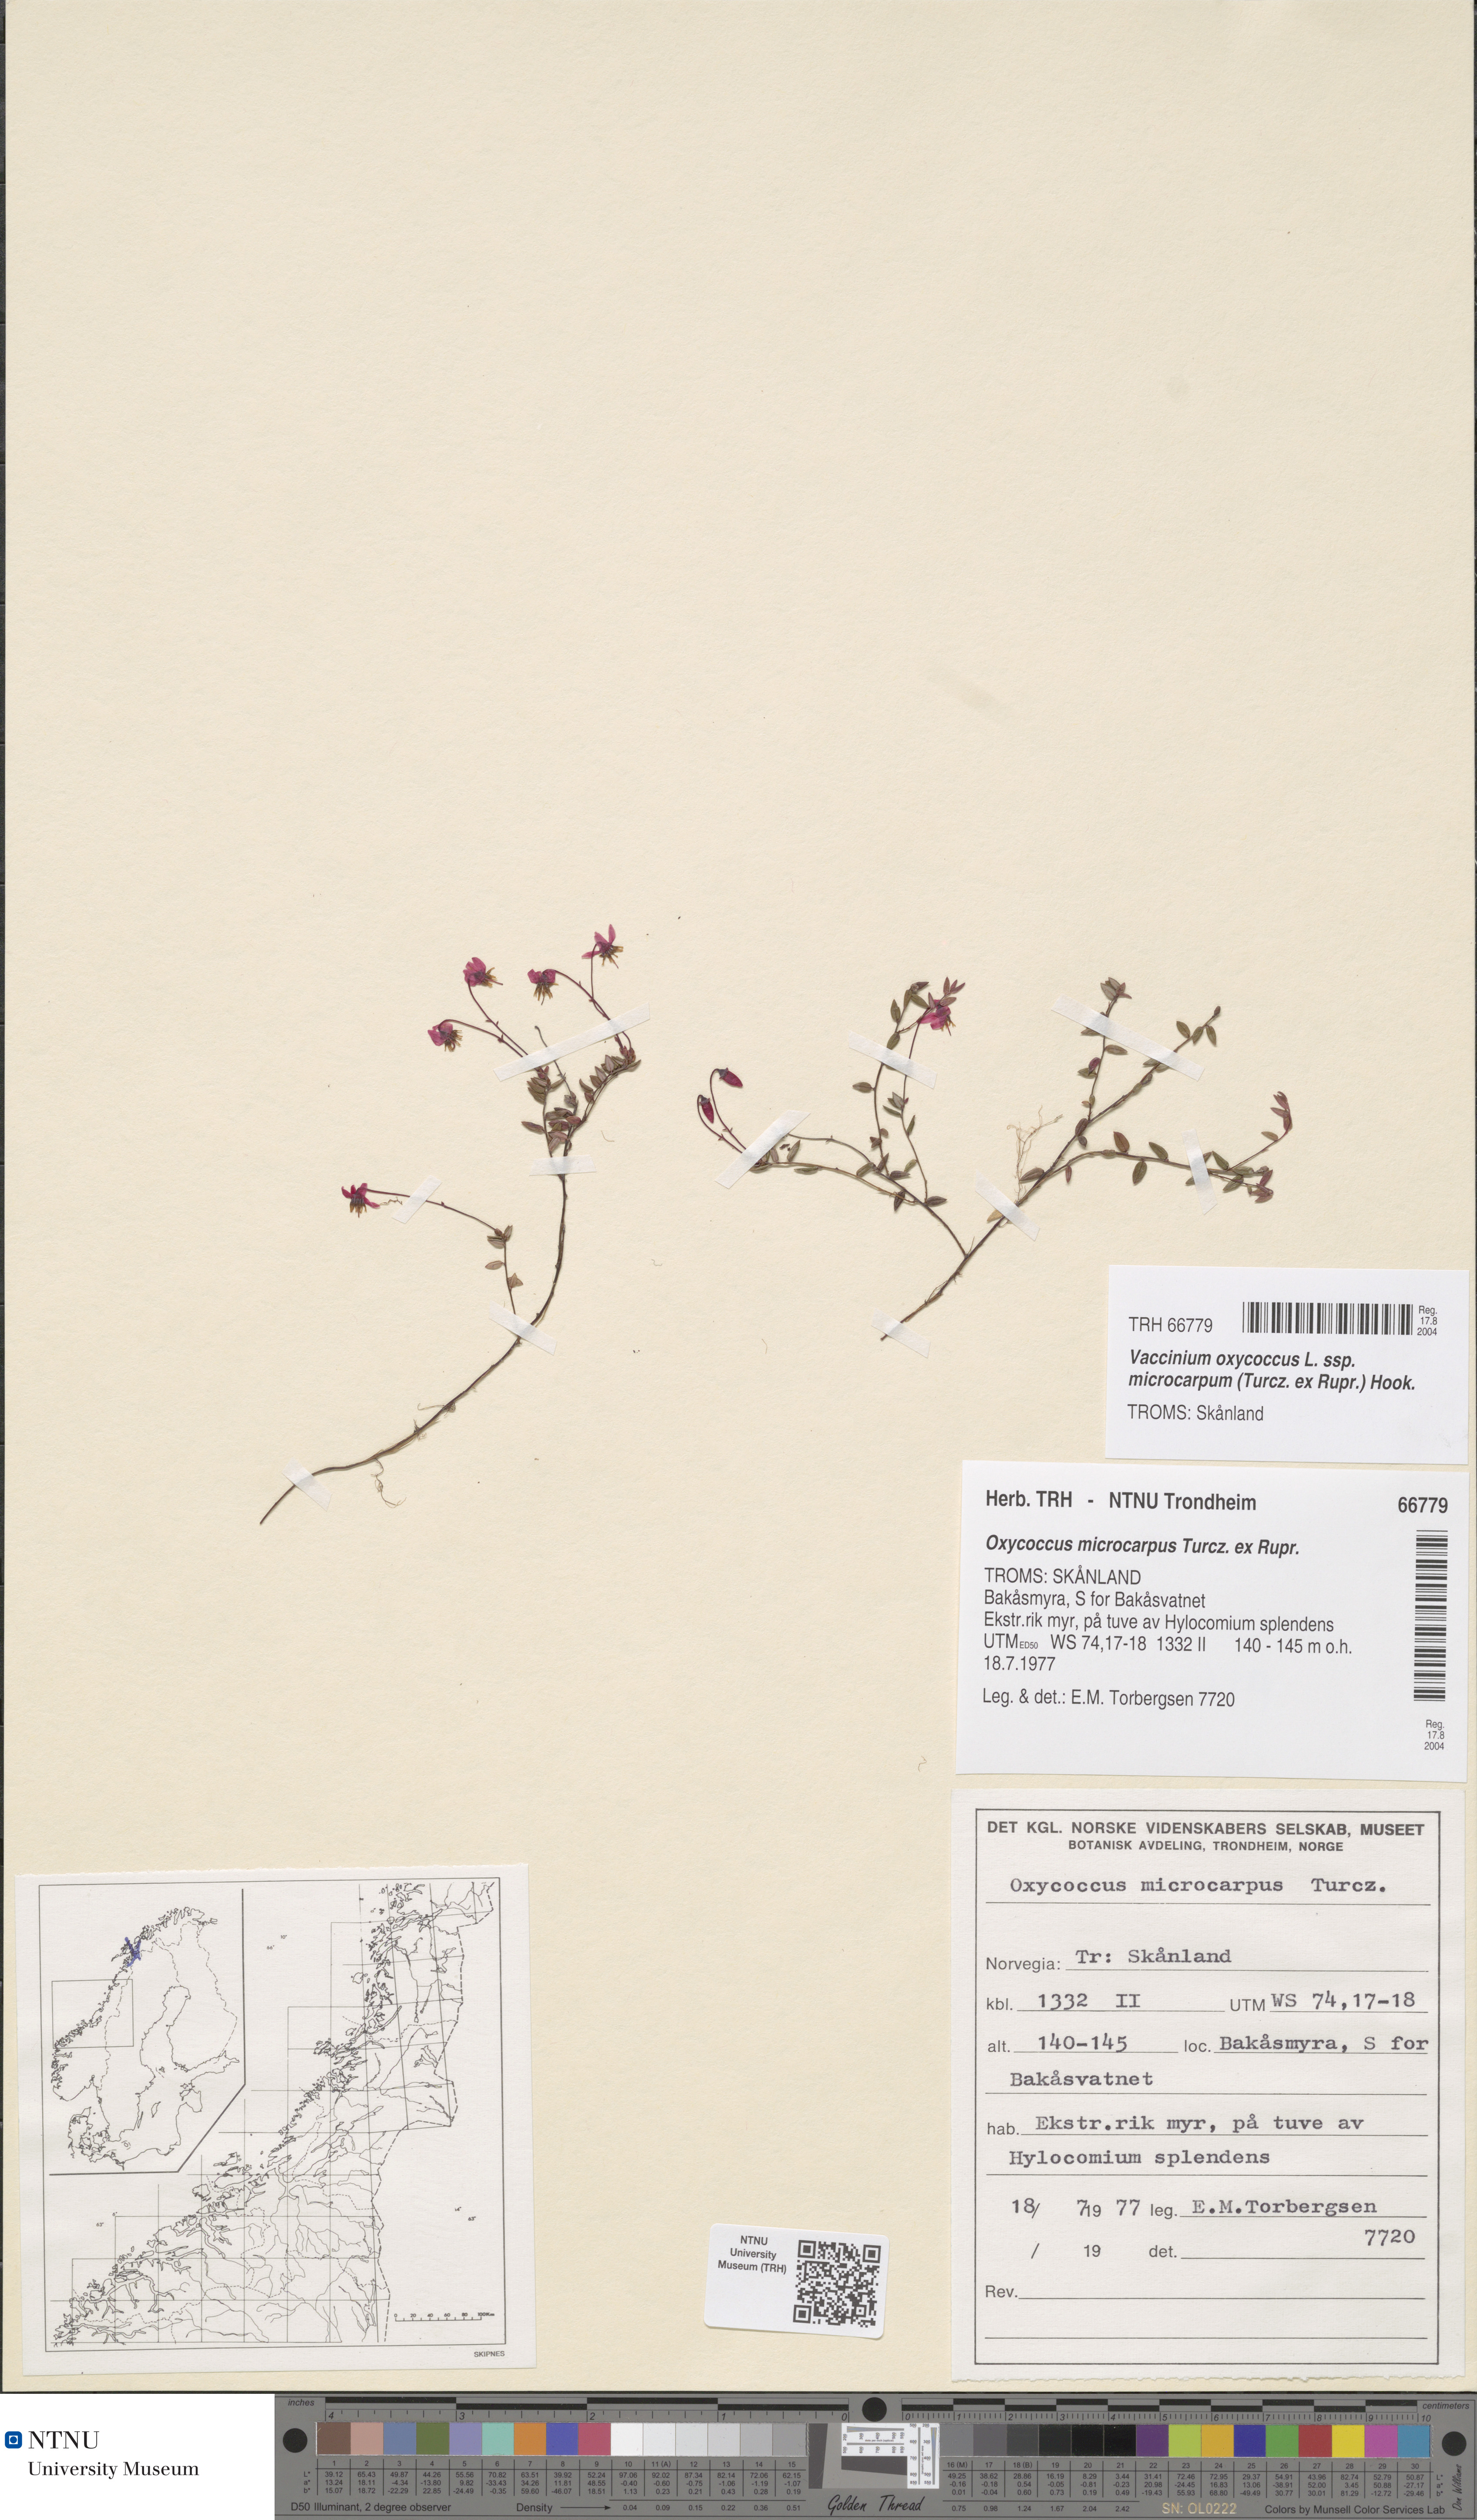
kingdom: Plantae
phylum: Tracheophyta
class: Magnoliopsida
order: Ericales
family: Ericaceae
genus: Vaccinium
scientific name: Vaccinium microcarpum
